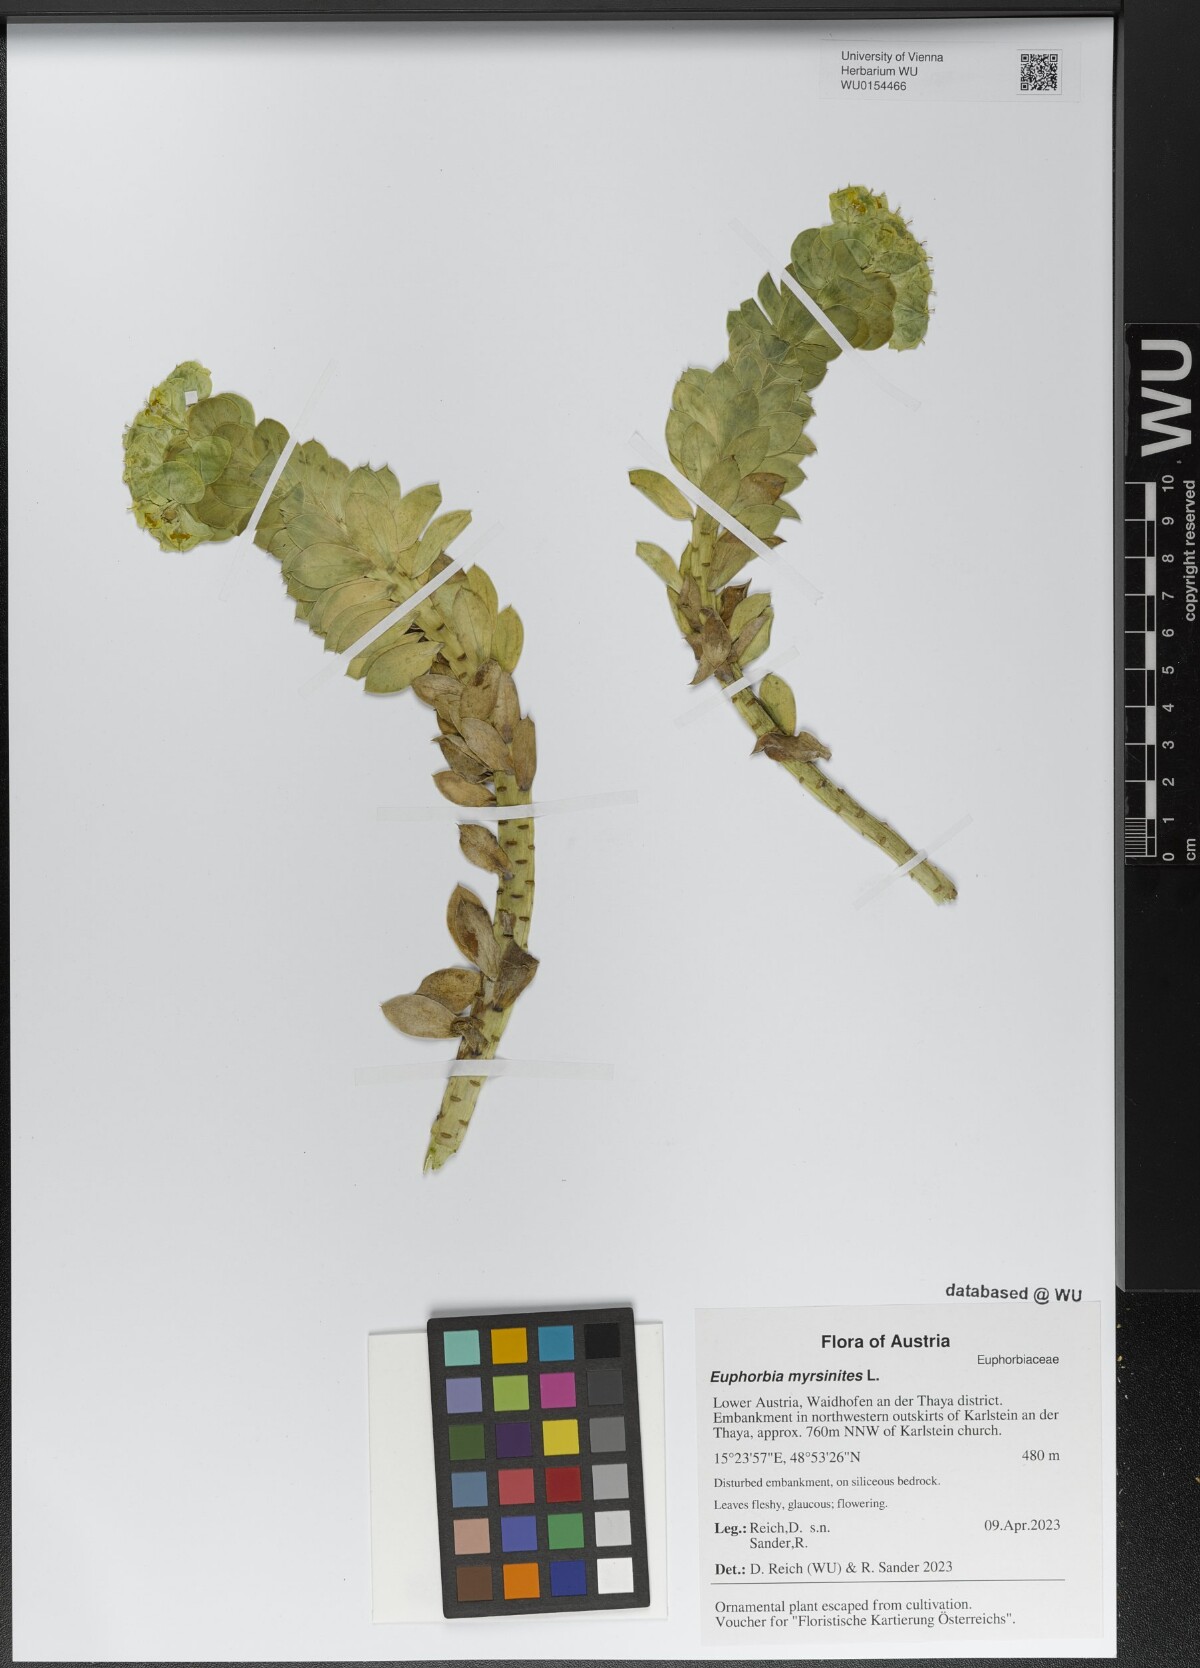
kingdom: Plantae
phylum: Tracheophyta
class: Magnoliopsida
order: Malpighiales
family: Euphorbiaceae
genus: Euphorbia
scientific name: Euphorbia myrsinites
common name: Myrtle spurge
